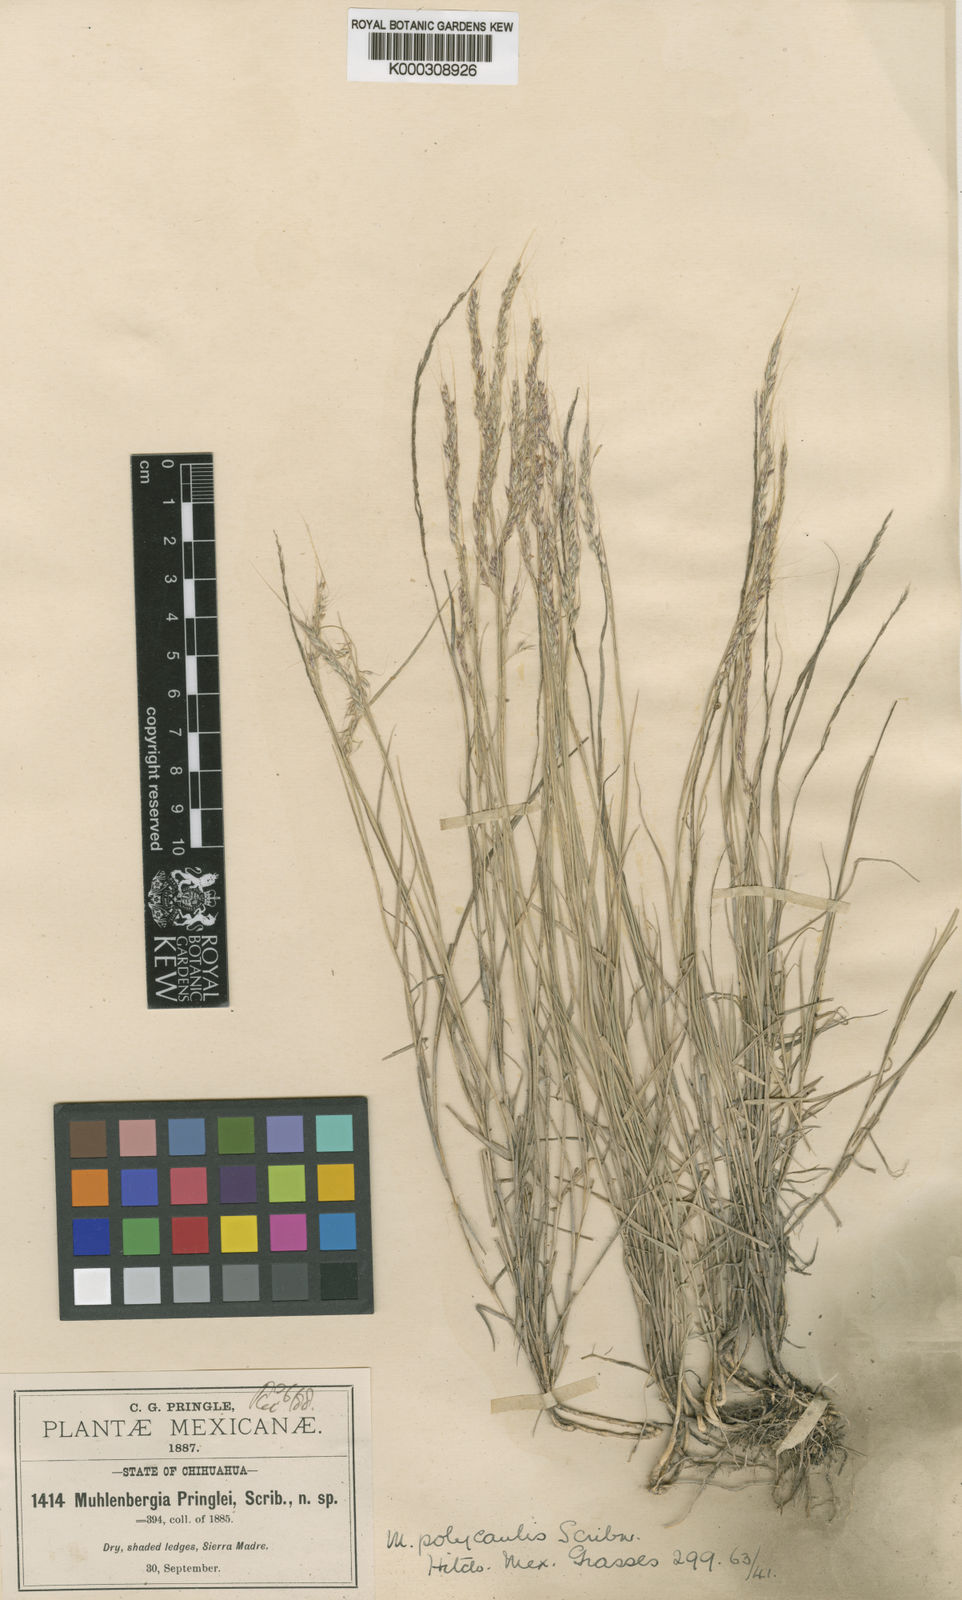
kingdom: Plantae
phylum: Tracheophyta
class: Liliopsida
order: Poales
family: Poaceae
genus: Muhlenbergia
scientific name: Muhlenbergia polycaulis
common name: Cliff muhly
